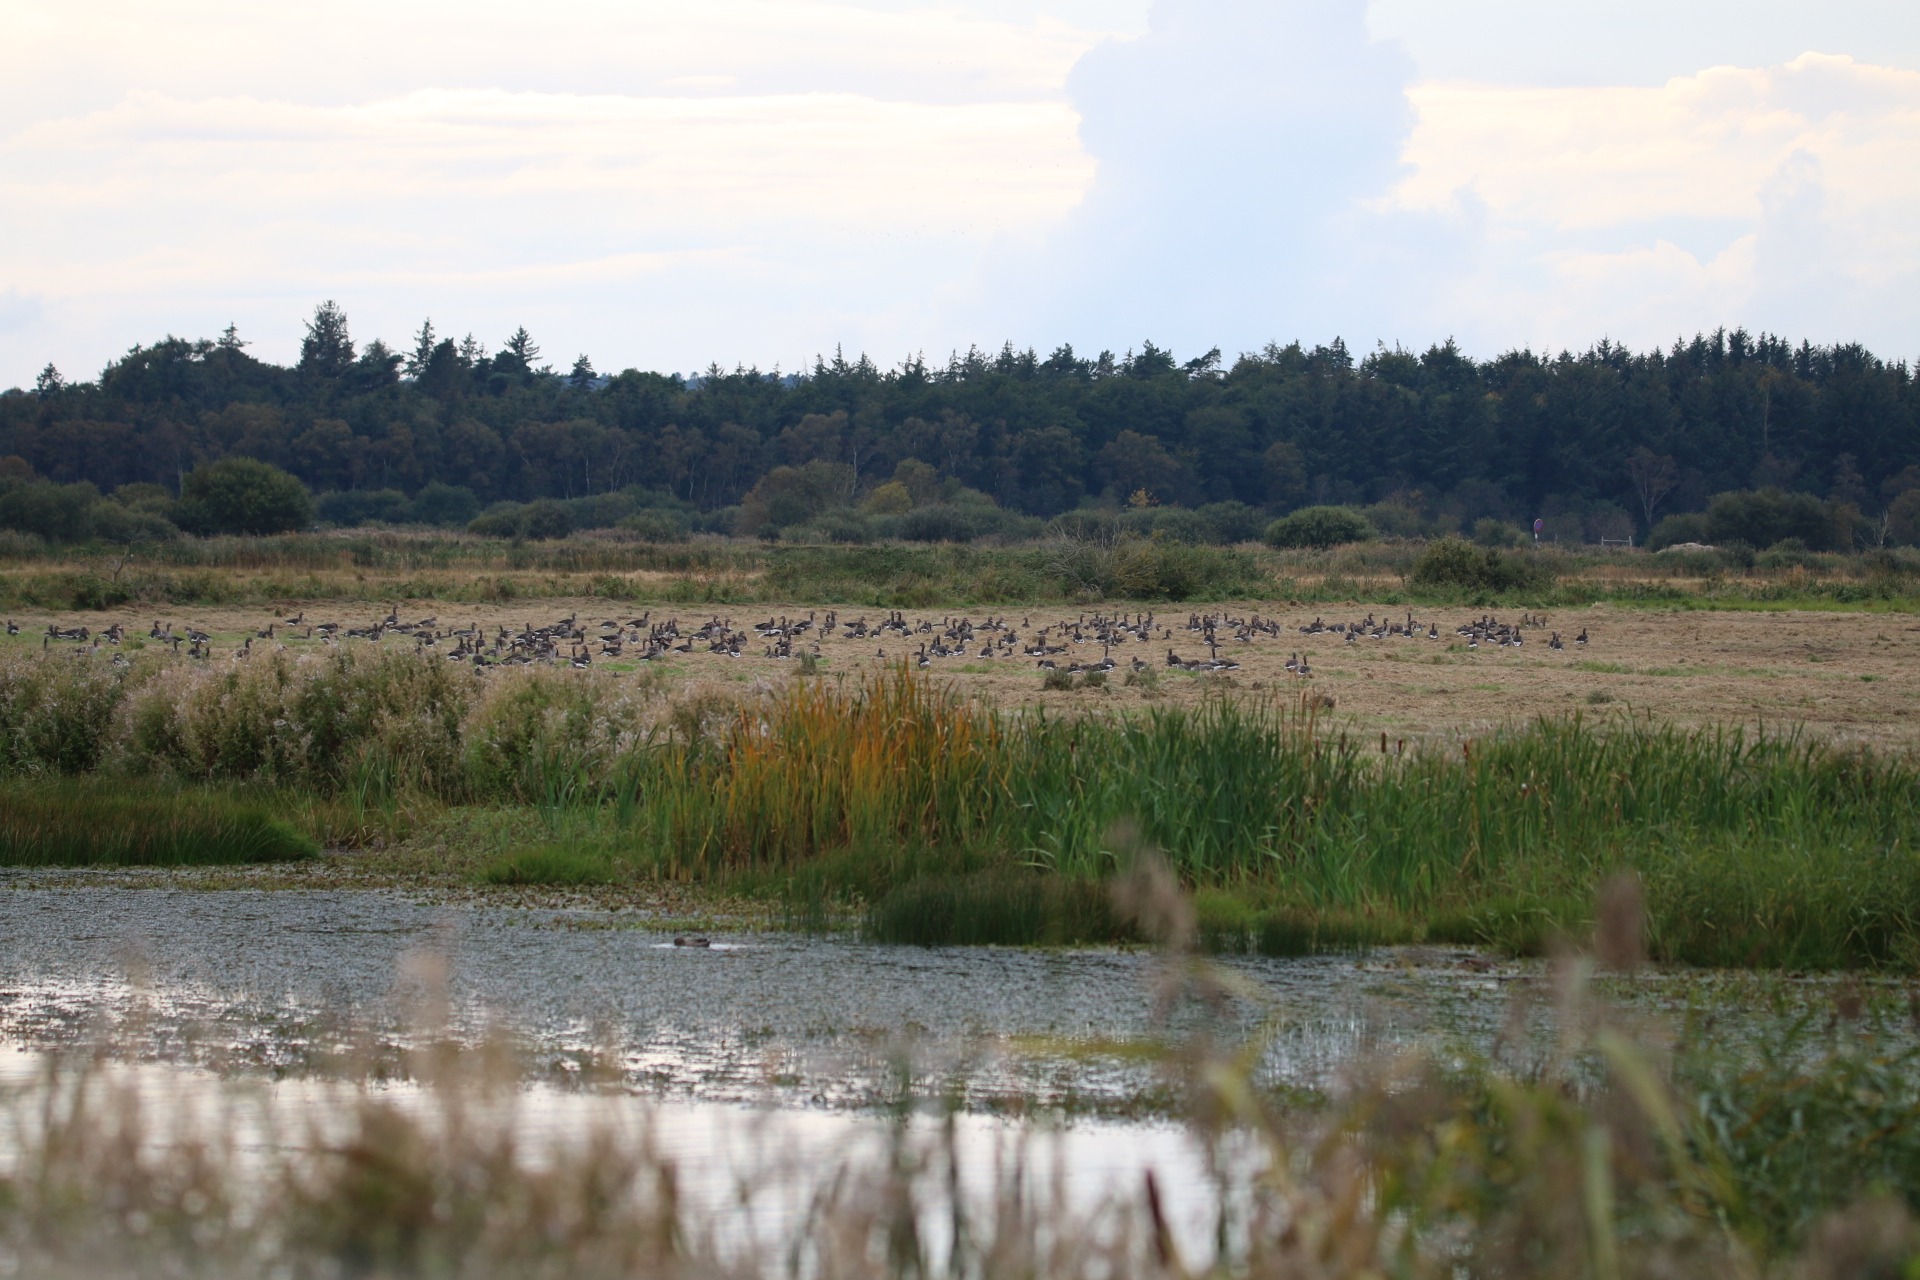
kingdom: Animalia
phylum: Chordata
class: Aves
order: Anseriformes
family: Anatidae
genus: Anser
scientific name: Anser anser
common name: Grågås
